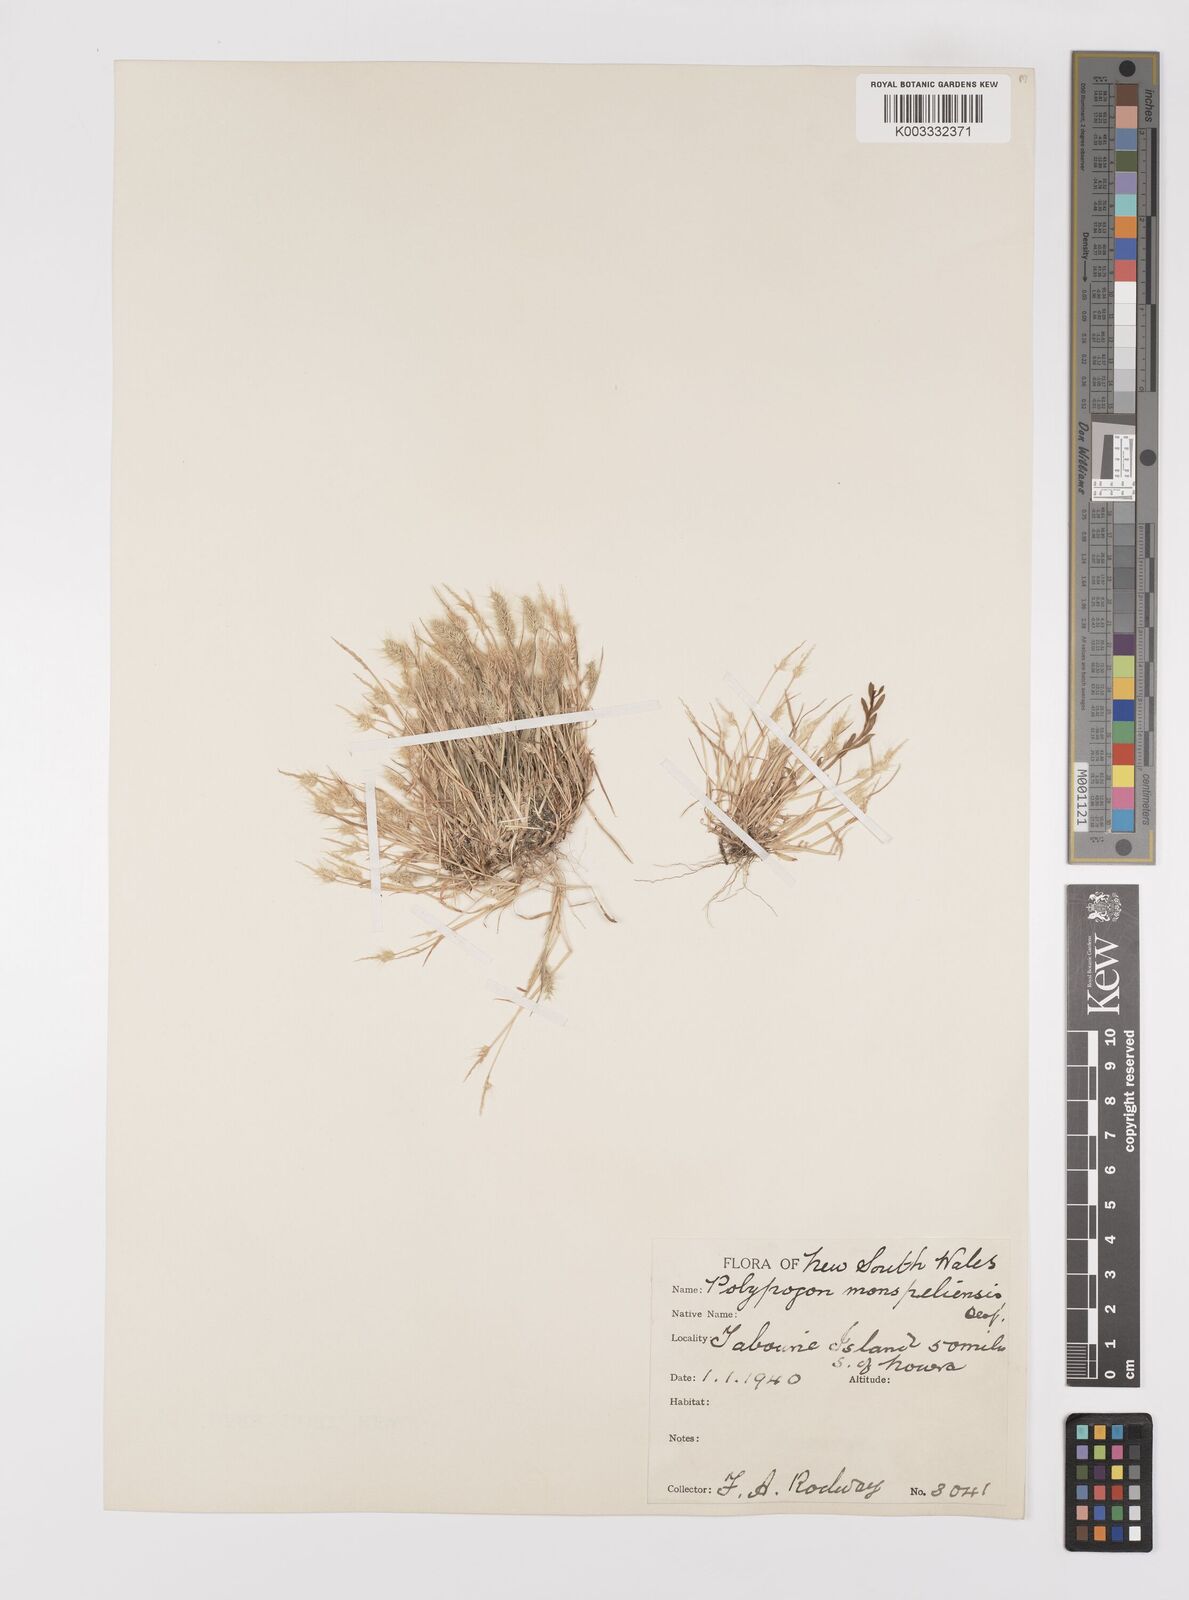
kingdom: Plantae
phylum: Tracheophyta
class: Liliopsida
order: Poales
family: Poaceae
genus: Polypogon
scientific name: Polypogon monspeliensis
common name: Annual rabbitsfoot grass
